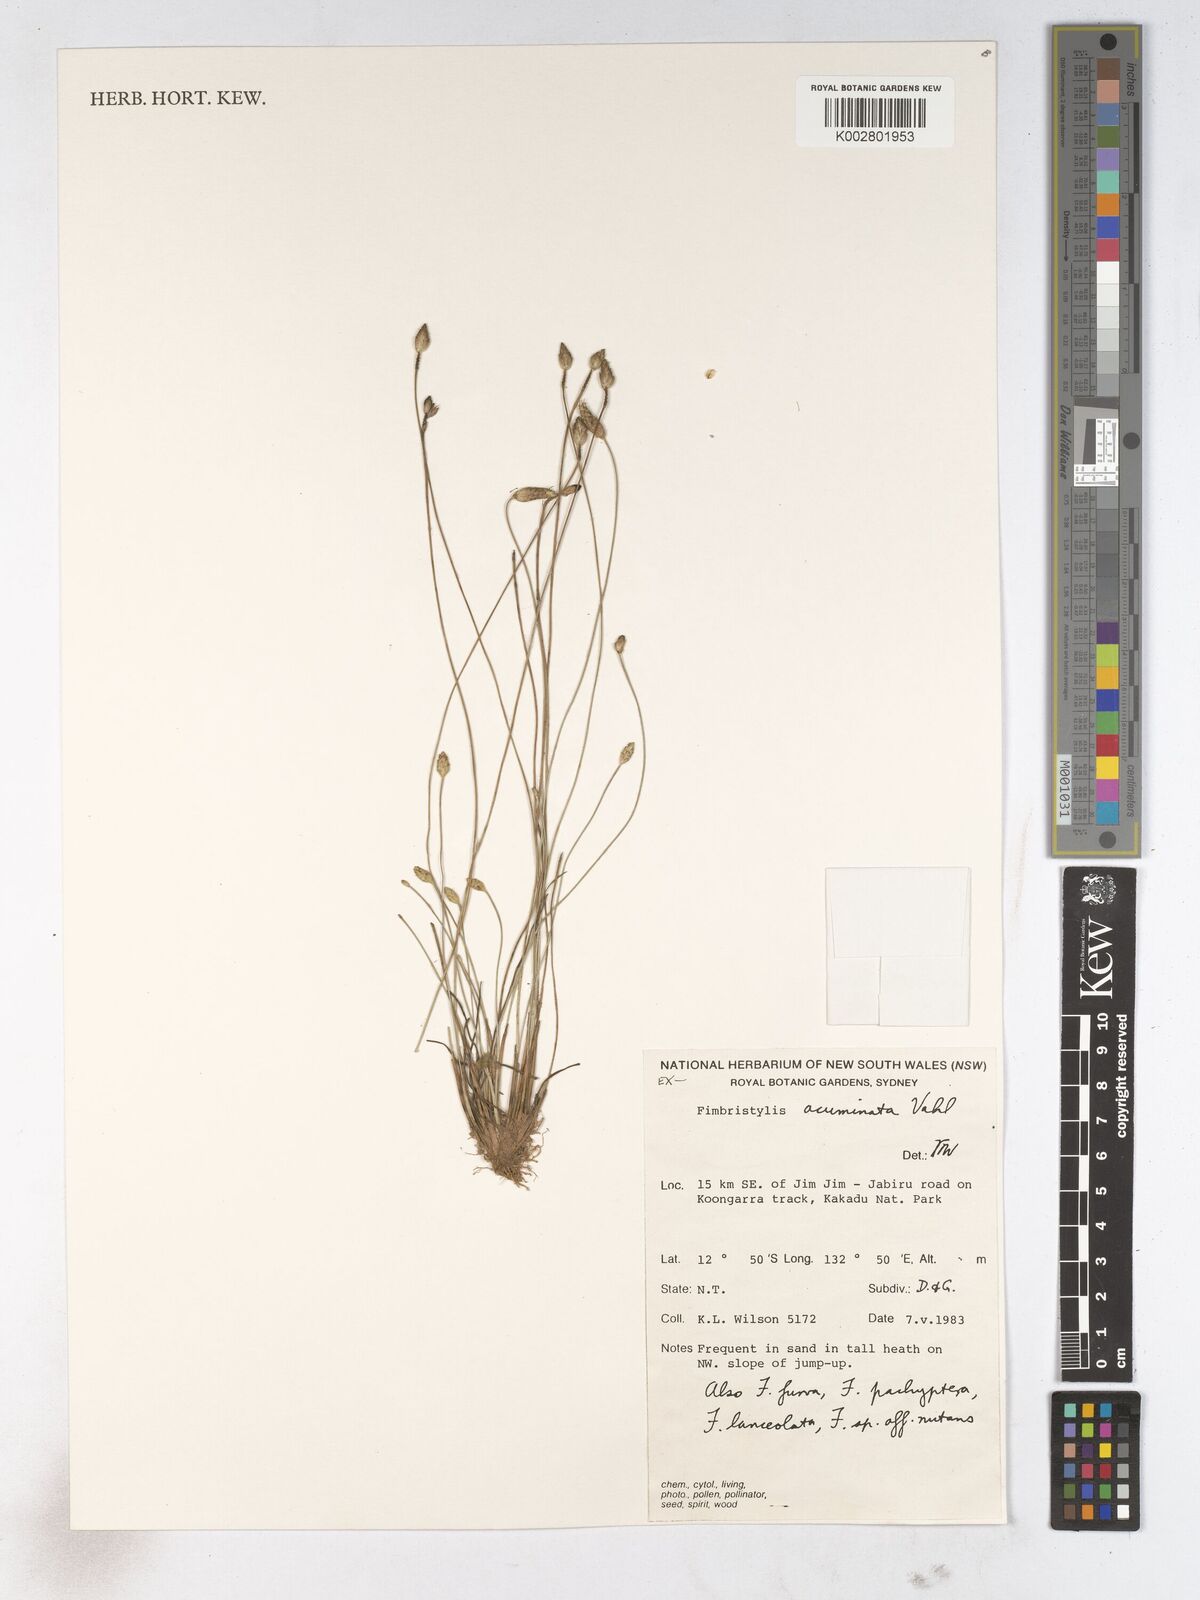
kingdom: Plantae
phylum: Tracheophyta
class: Liliopsida
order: Poales
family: Cyperaceae
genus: Fimbristylis
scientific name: Fimbristylis acuminata
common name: Pointed fimbristylis
